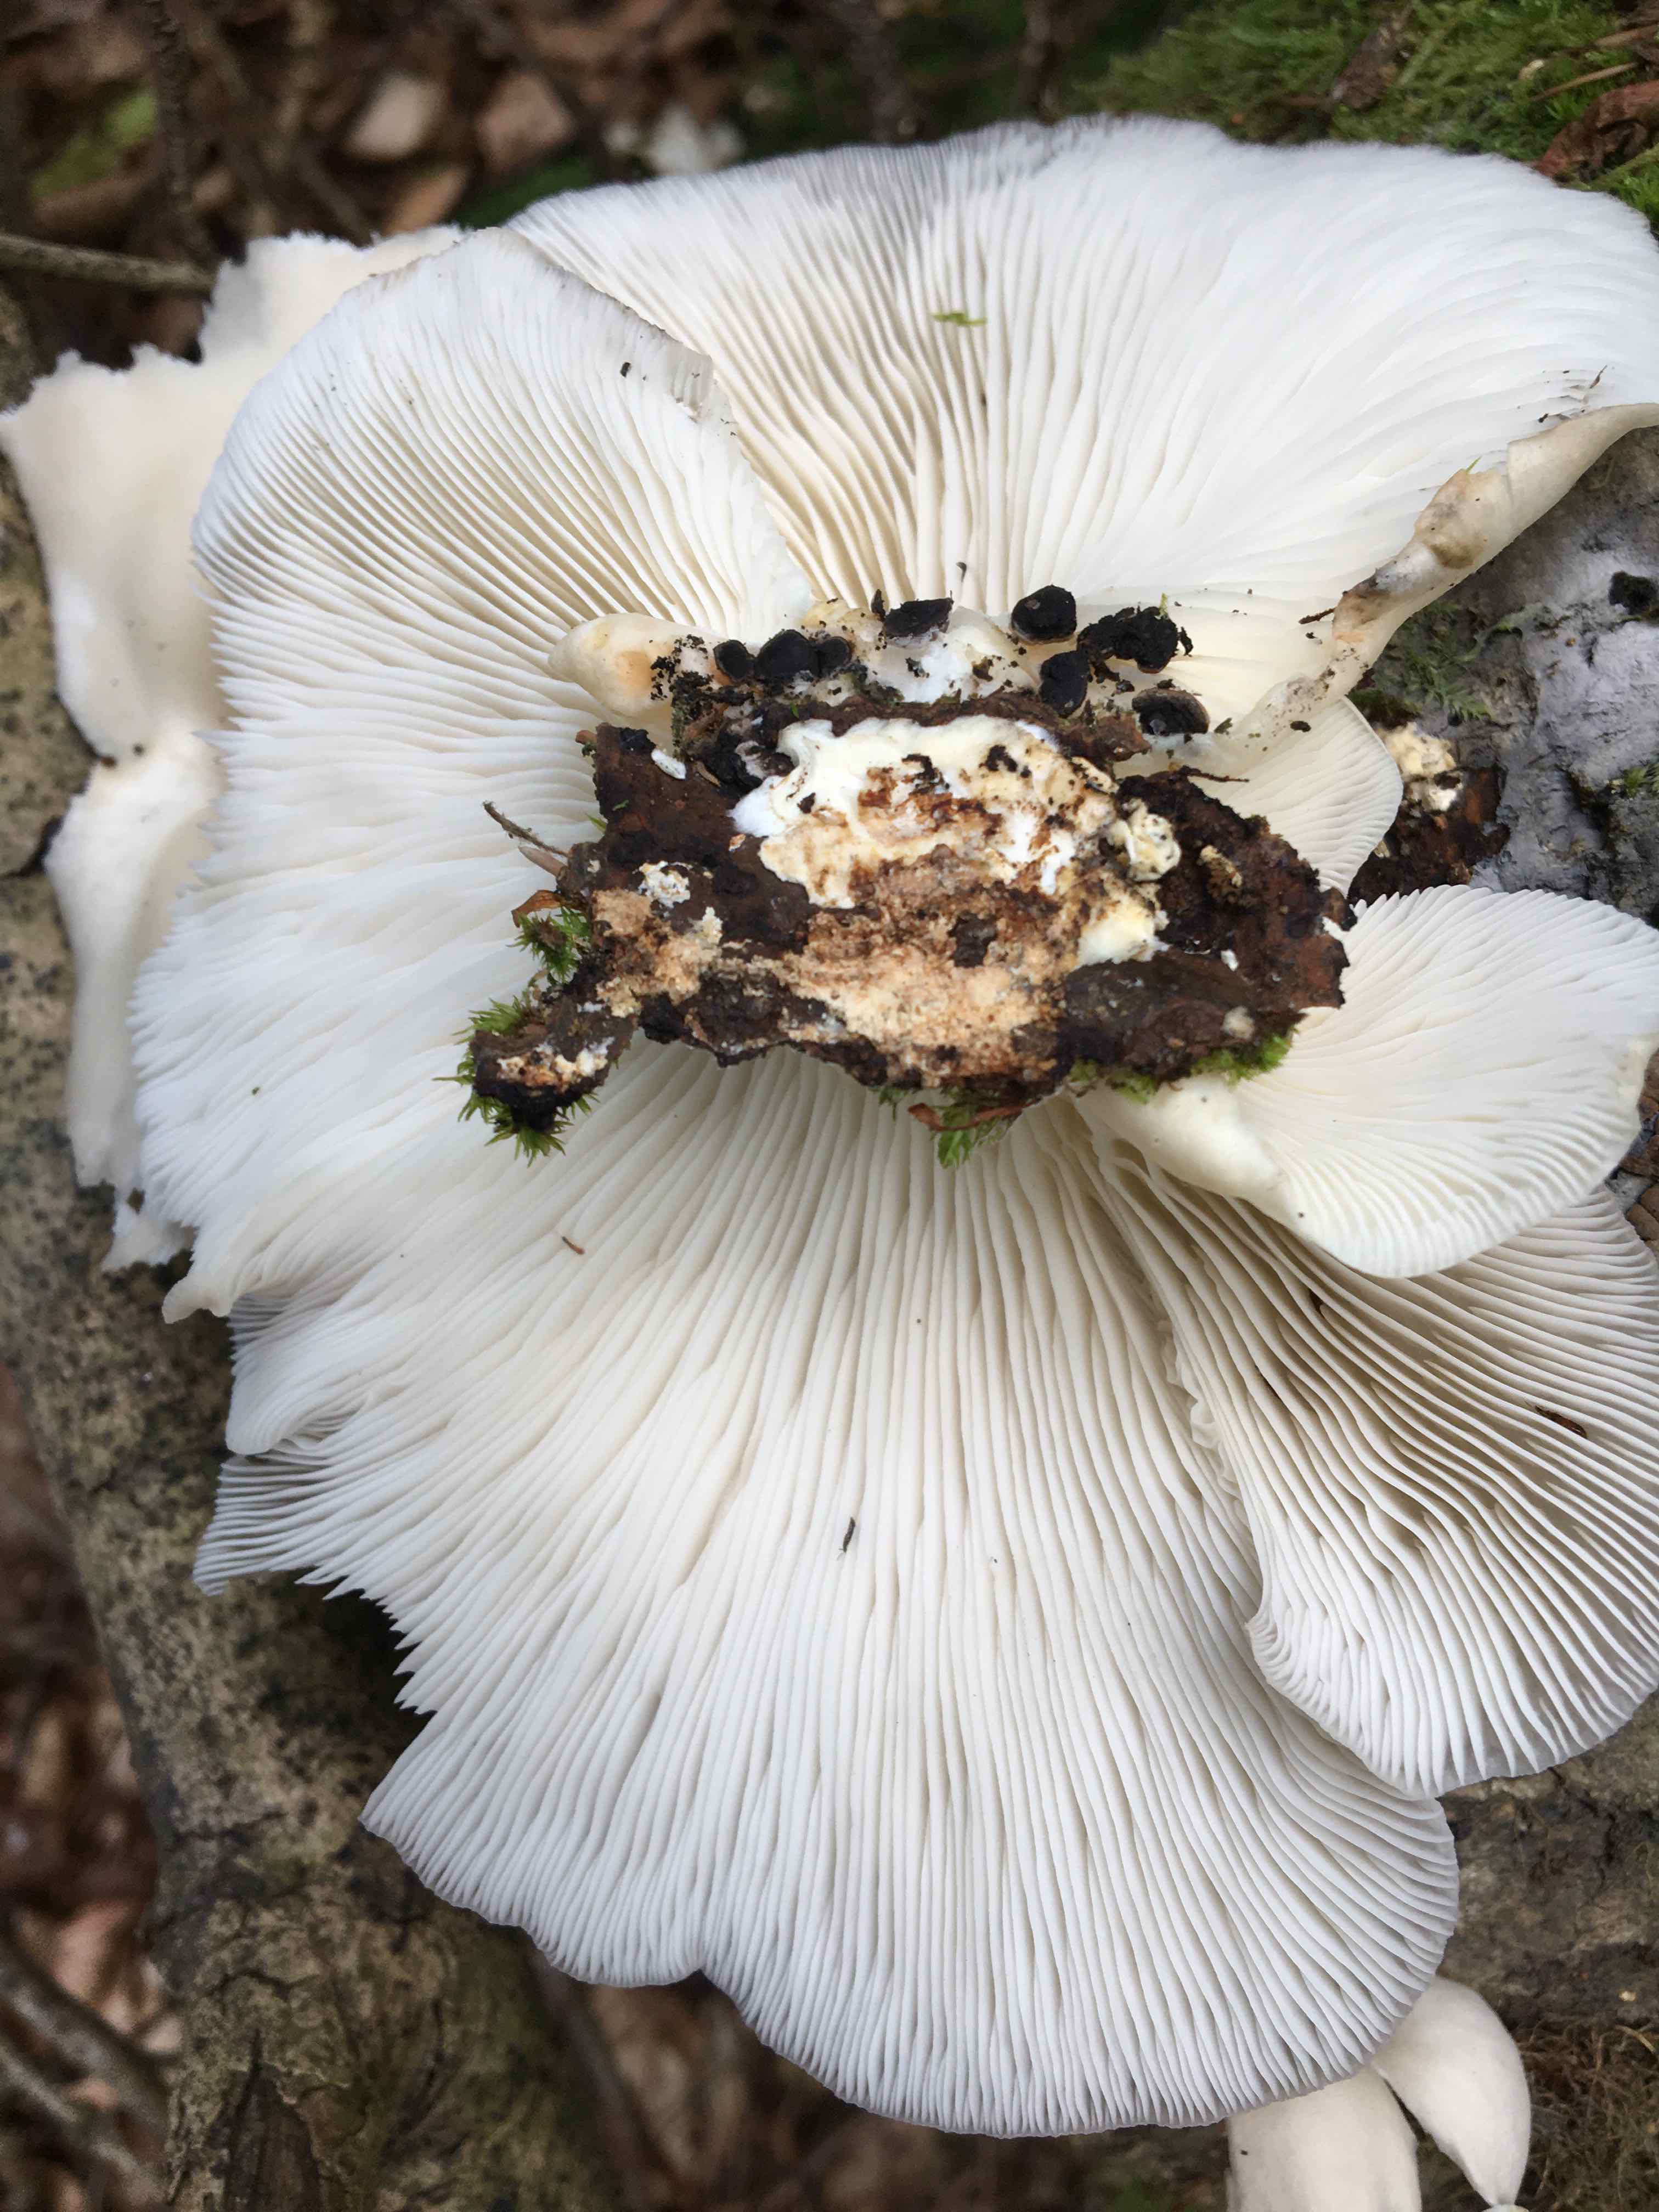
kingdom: Fungi
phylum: Basidiomycota
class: Agaricomycetes
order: Agaricales
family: Pleurotaceae
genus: Pleurotus
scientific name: Pleurotus pulmonarius
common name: sommer-østershat
